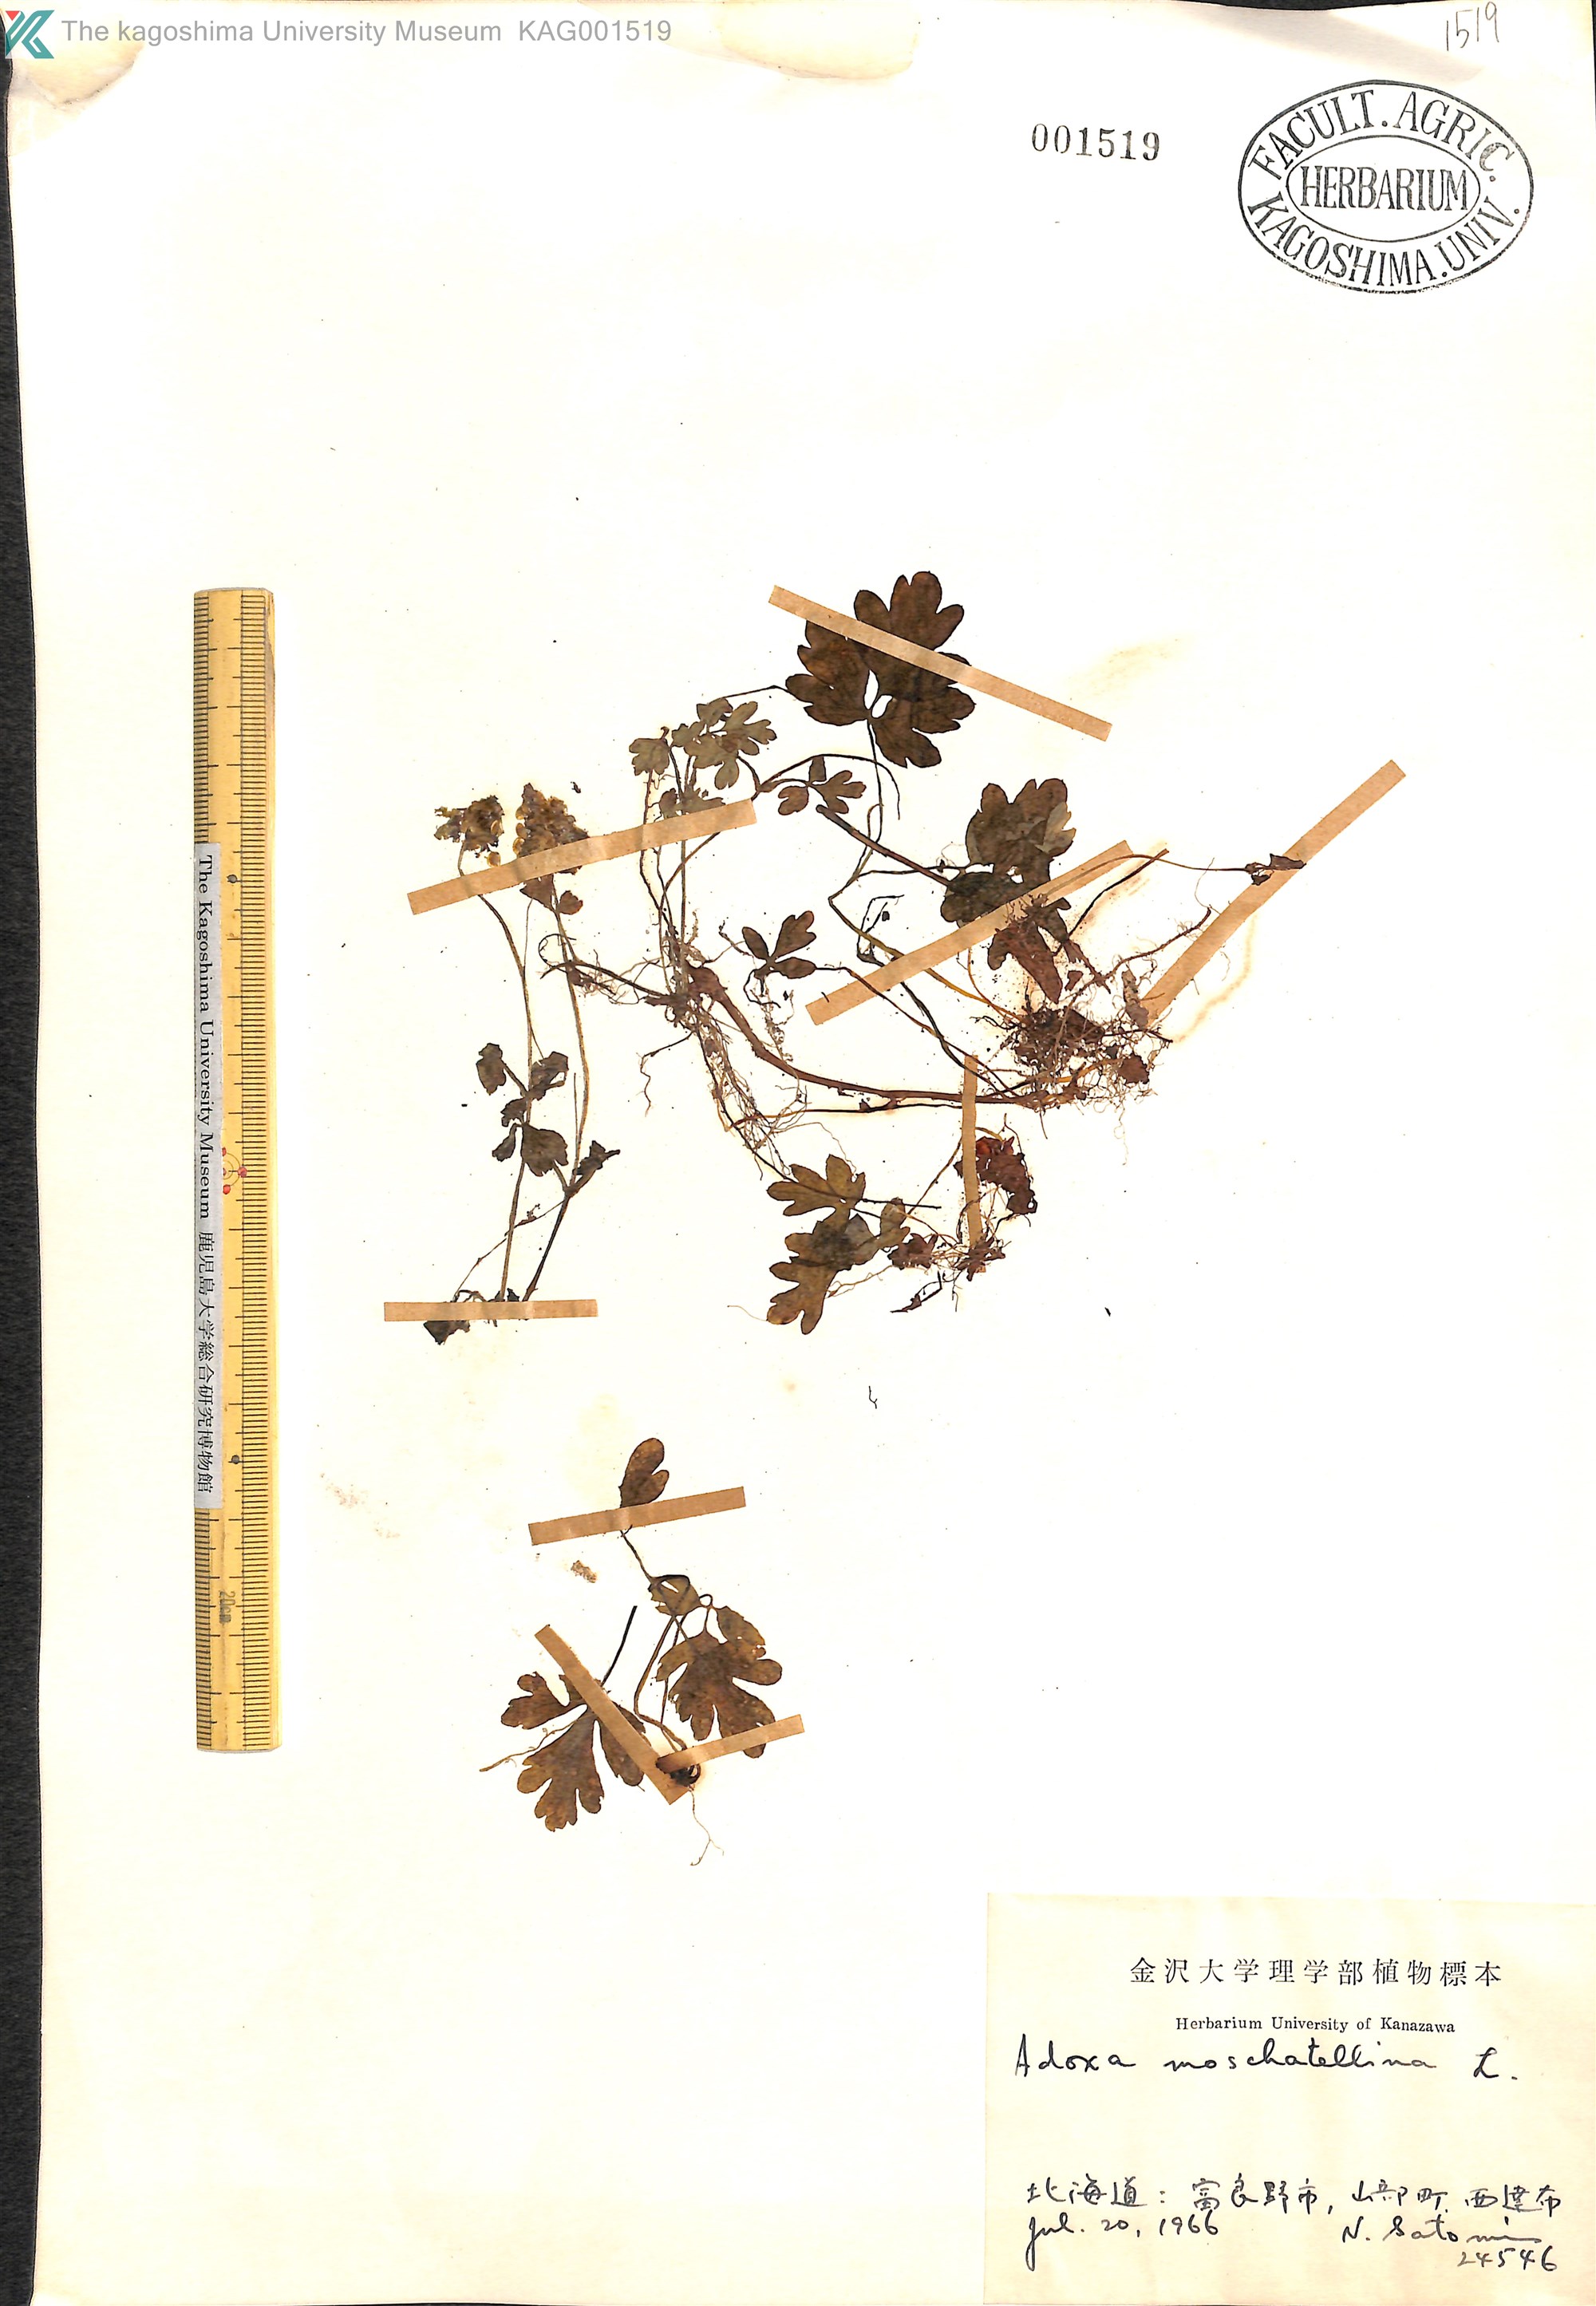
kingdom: Plantae
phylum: Tracheophyta
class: Magnoliopsida
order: Dipsacales
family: Viburnaceae
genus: Adoxa
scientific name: Adoxa moschatellina
